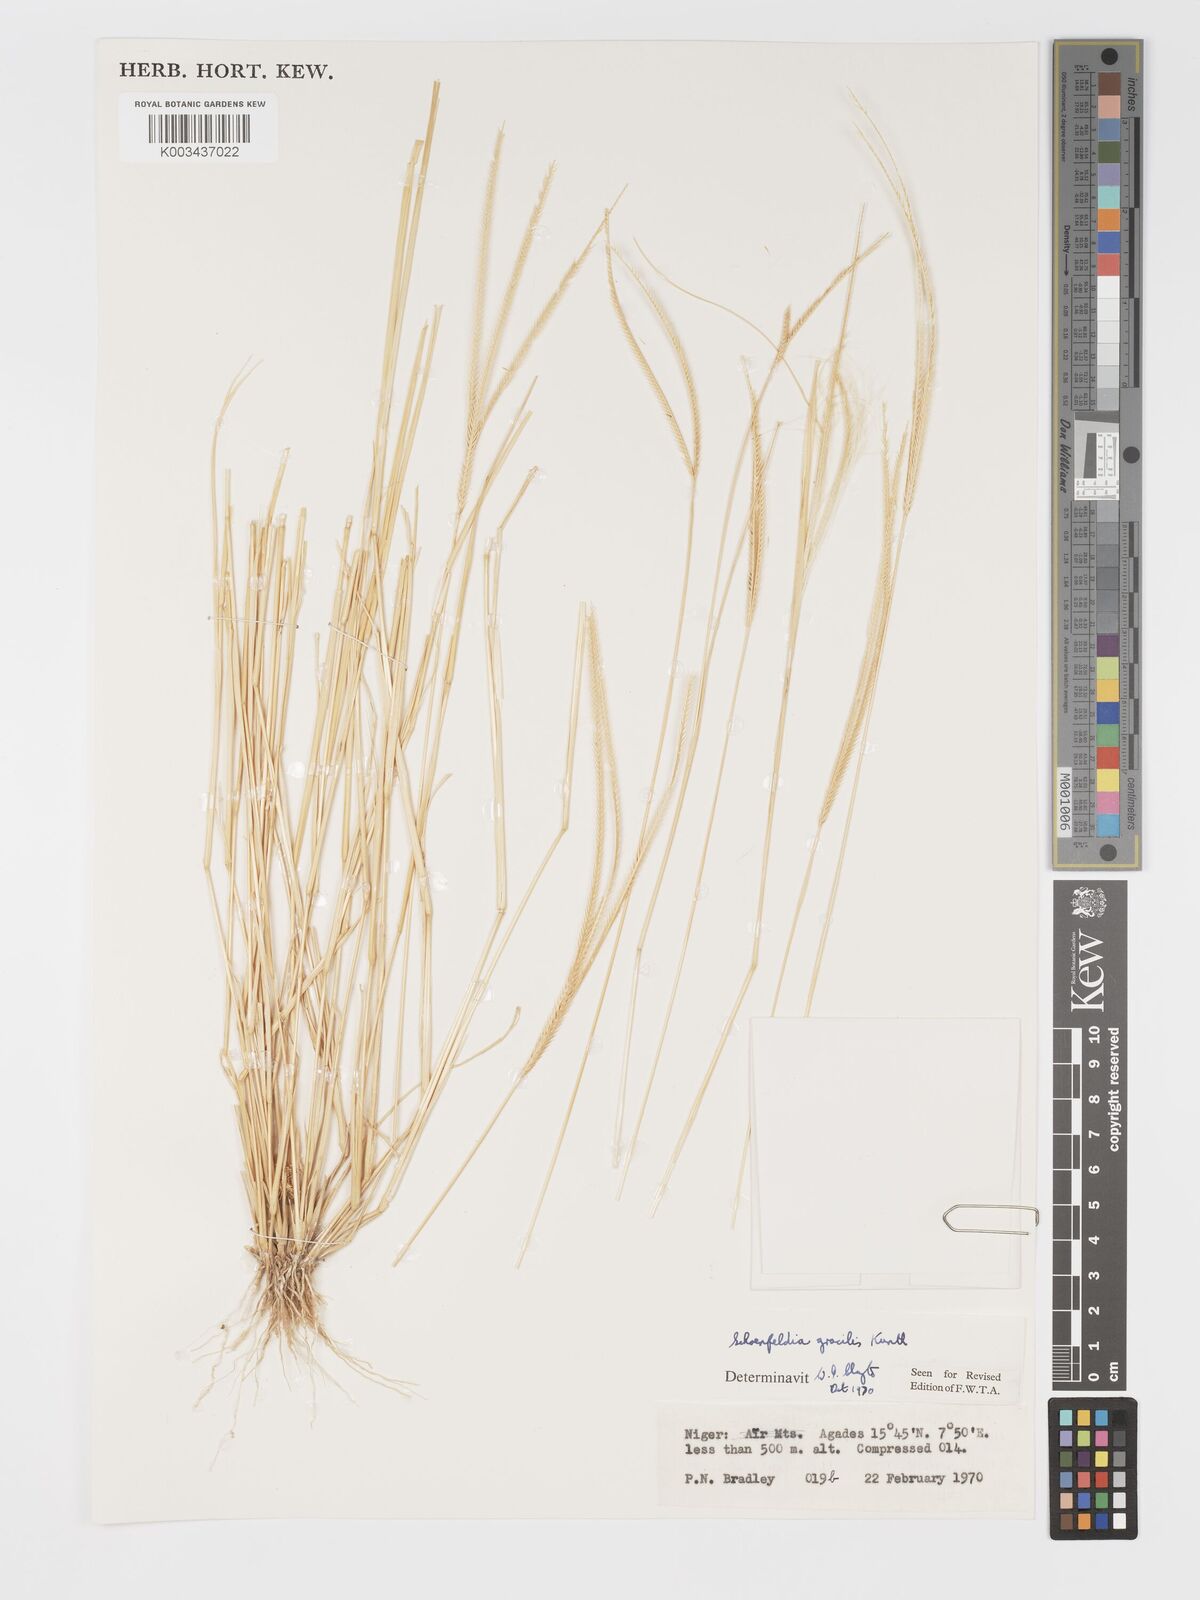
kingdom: Plantae
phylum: Tracheophyta
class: Liliopsida
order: Poales
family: Poaceae
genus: Schoenefeldia
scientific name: Schoenefeldia gracilis
